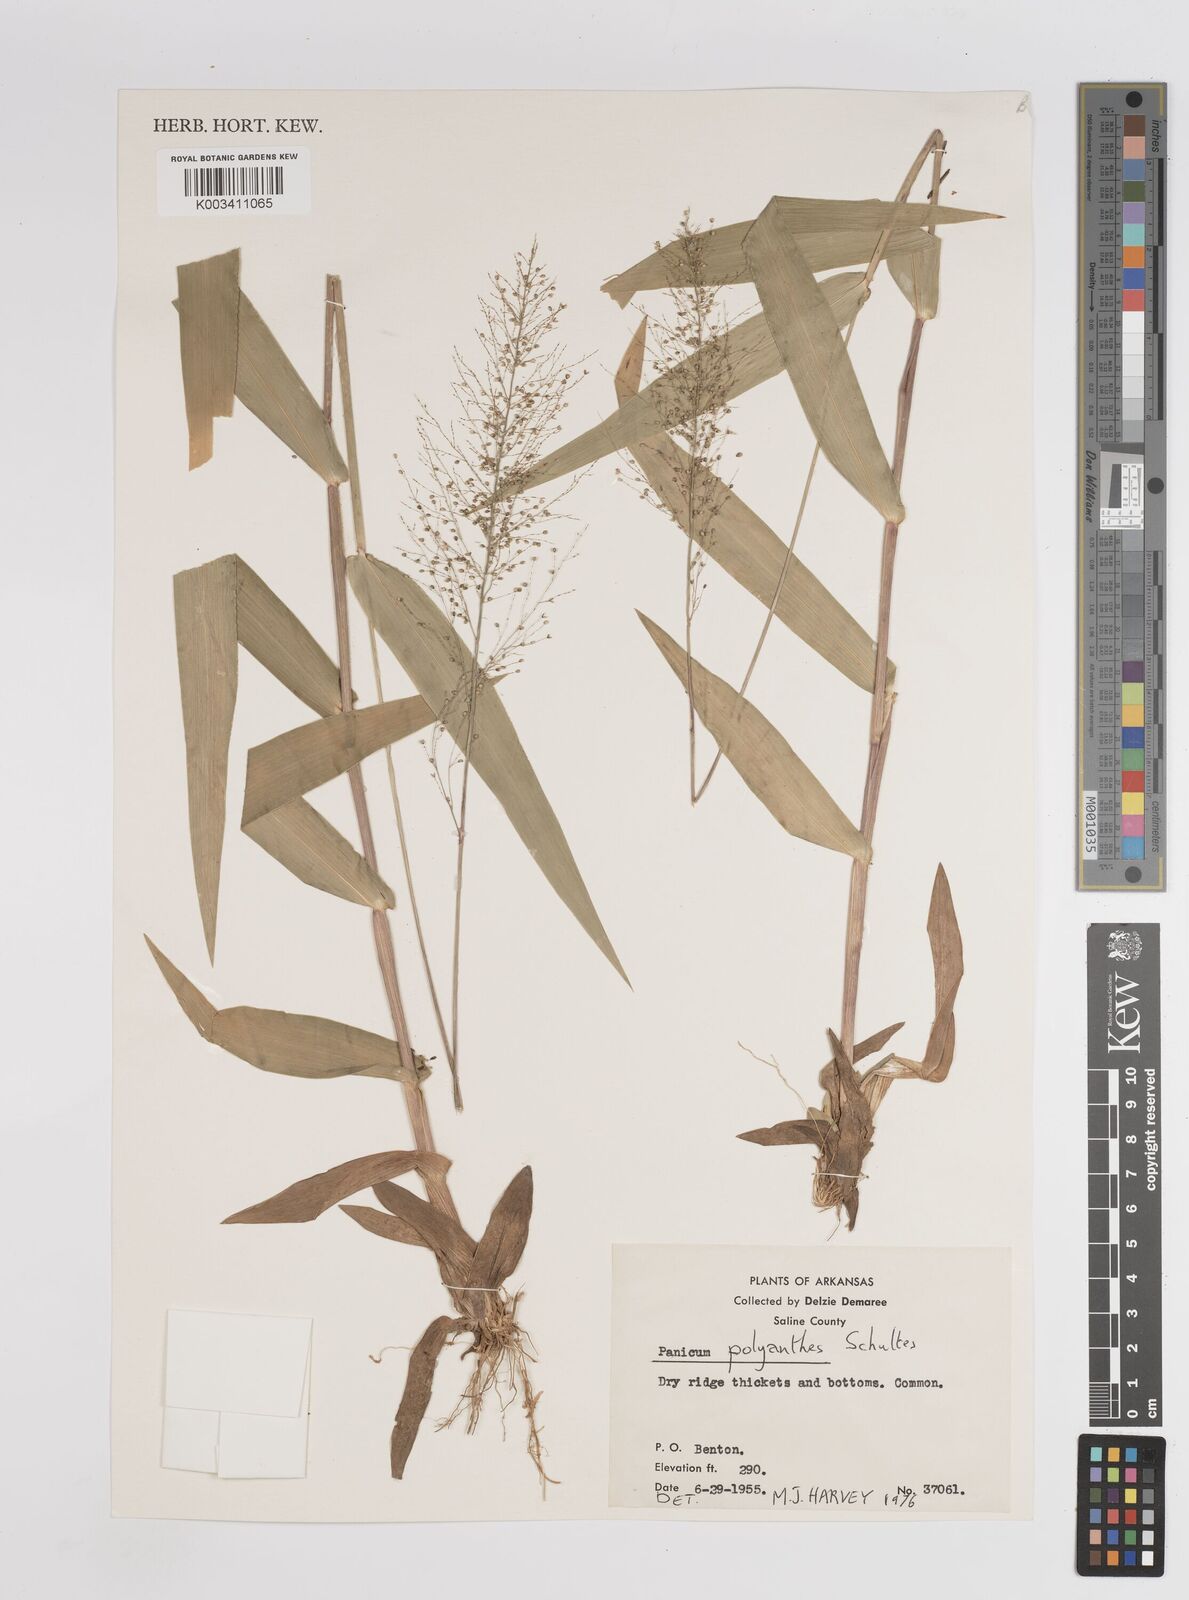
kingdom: Plantae
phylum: Tracheophyta
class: Liliopsida
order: Poales
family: Poaceae
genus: Dichanthelium
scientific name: Dichanthelium polyanthes
